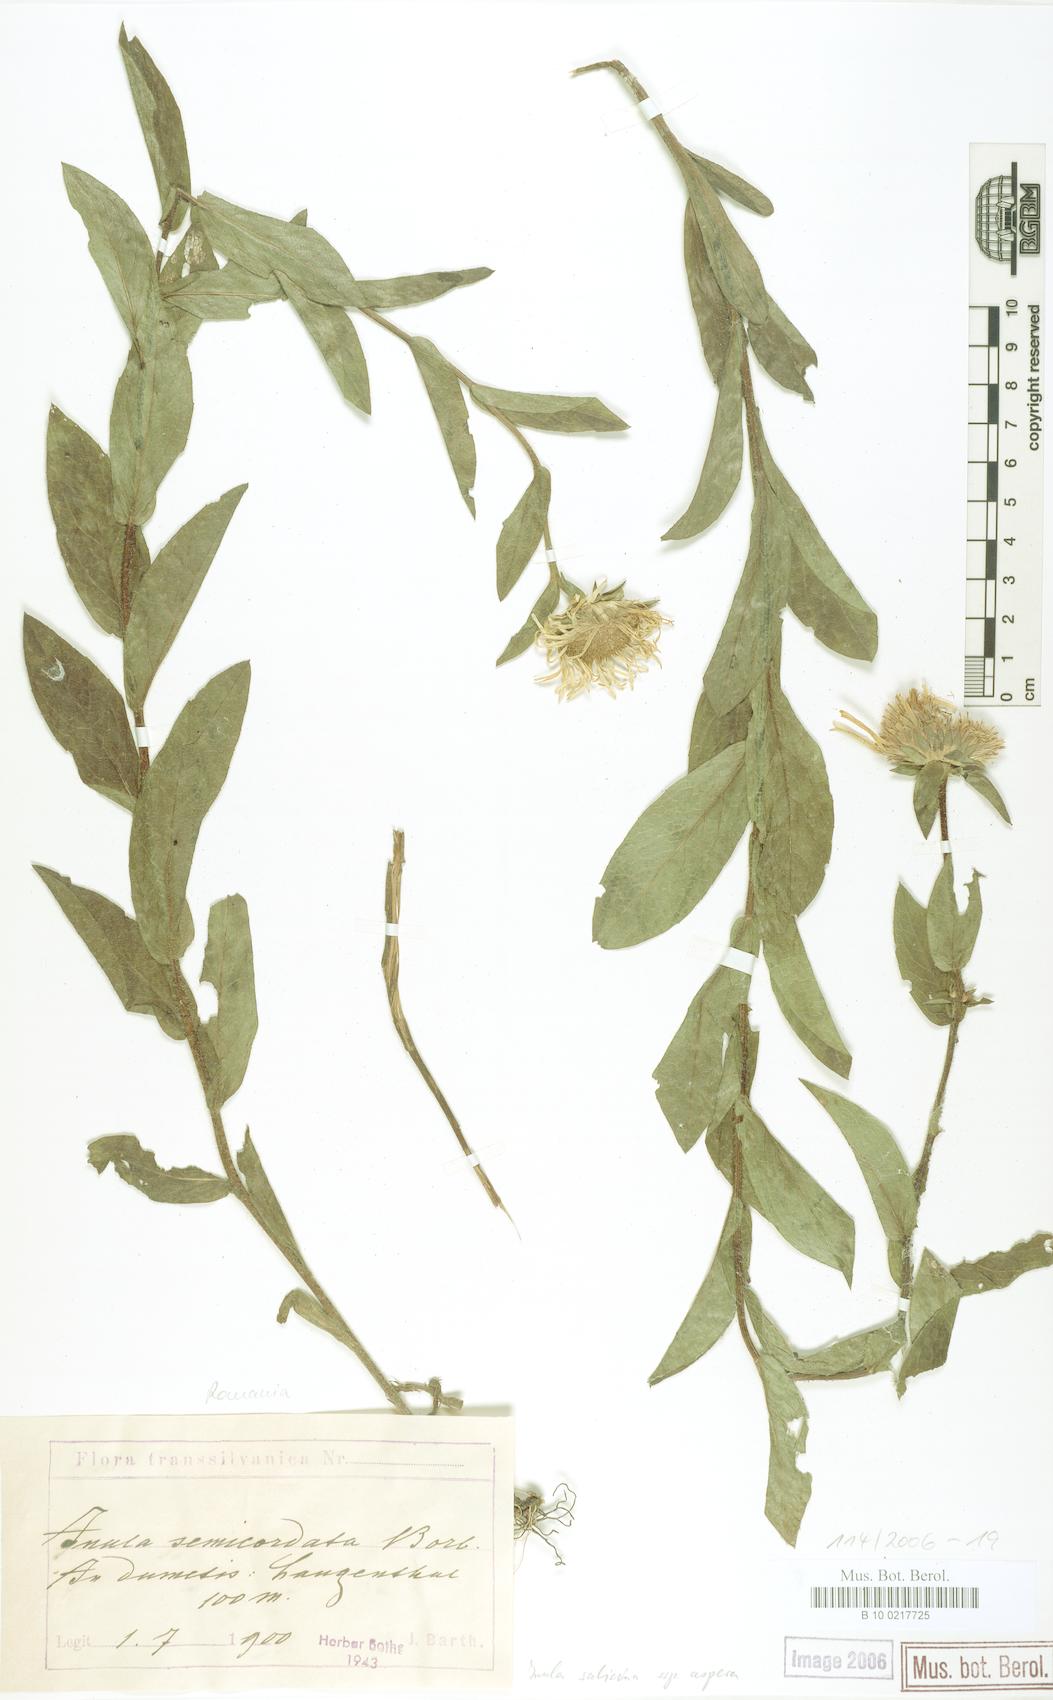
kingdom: Plantae
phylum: Tracheophyta
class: Magnoliopsida
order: Asterales
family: Asteraceae
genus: Pentanema
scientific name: Pentanema hispidum
